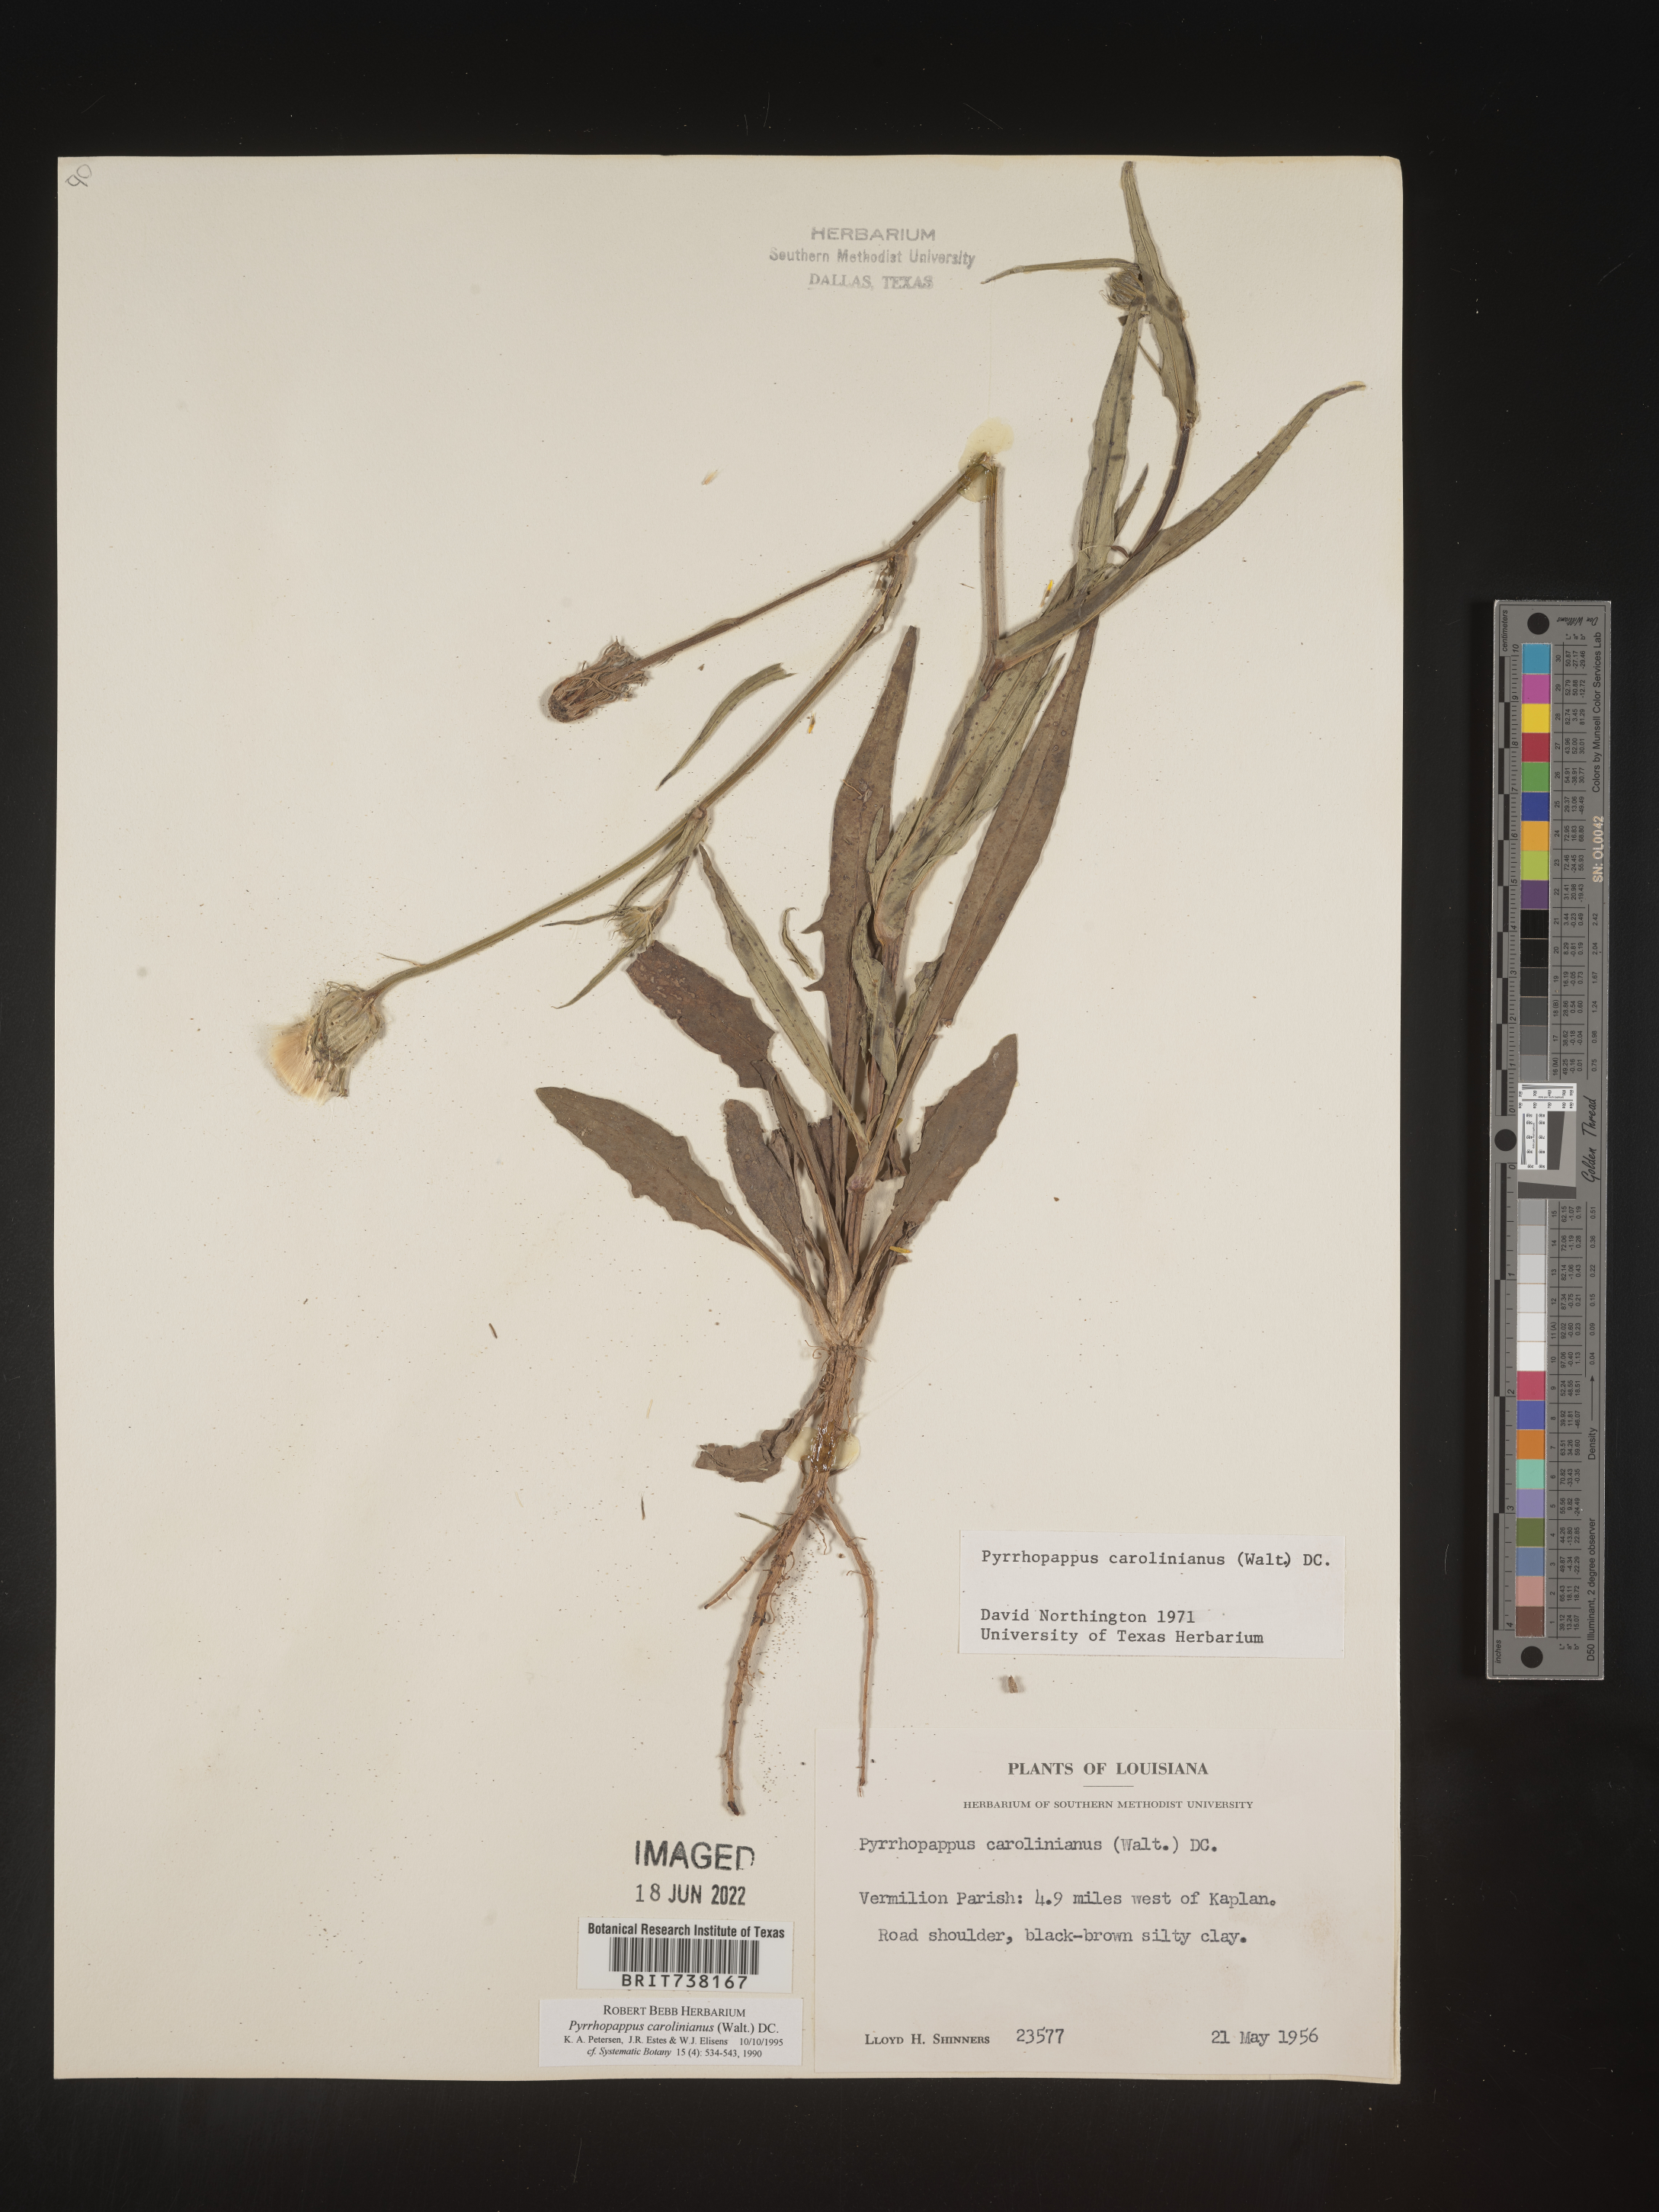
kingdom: Plantae
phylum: Tracheophyta
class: Magnoliopsida
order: Asterales
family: Asteraceae
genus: Pyrrhopappus
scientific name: Pyrrhopappus carolinianus
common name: Carolina desert-chicory
